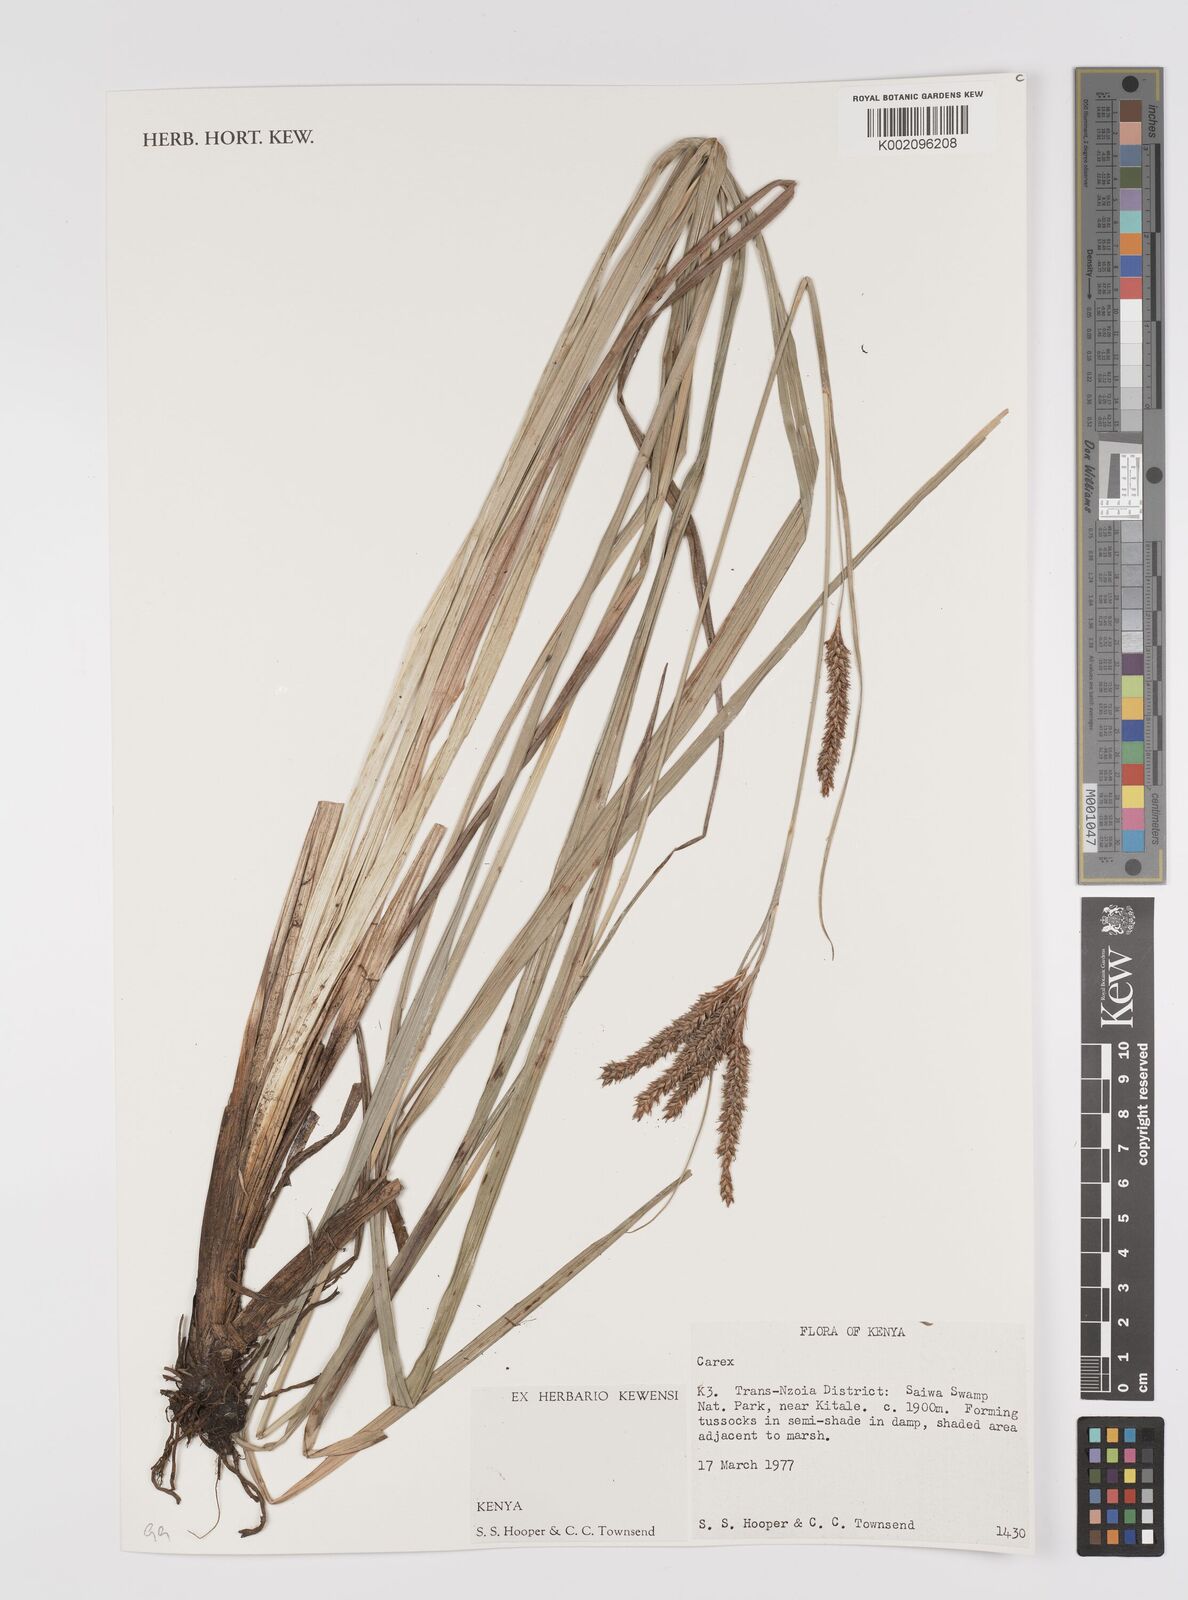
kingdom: Plantae
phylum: Tracheophyta
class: Liliopsida
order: Poales
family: Cyperaceae
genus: Carex
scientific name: Carex
